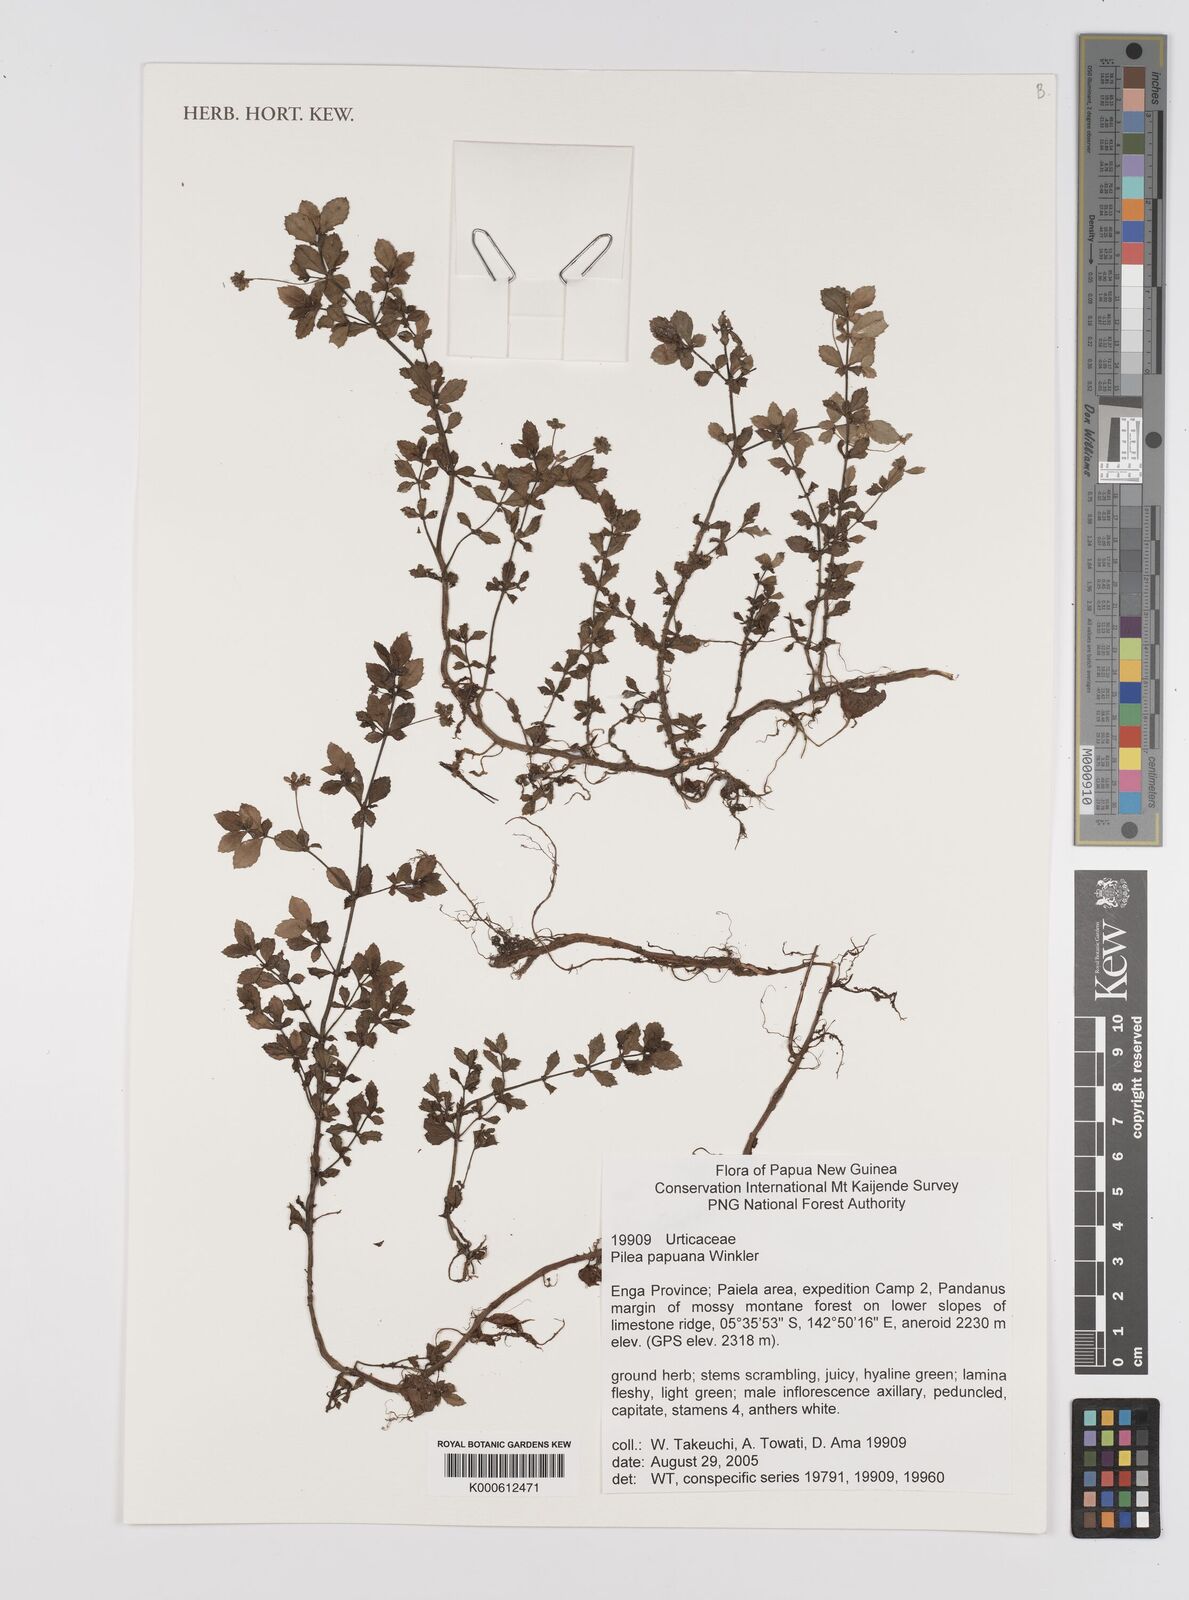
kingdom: Plantae
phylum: Tracheophyta
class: Magnoliopsida
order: Rosales
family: Urticaceae
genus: Pilea
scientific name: Pilea papuana
